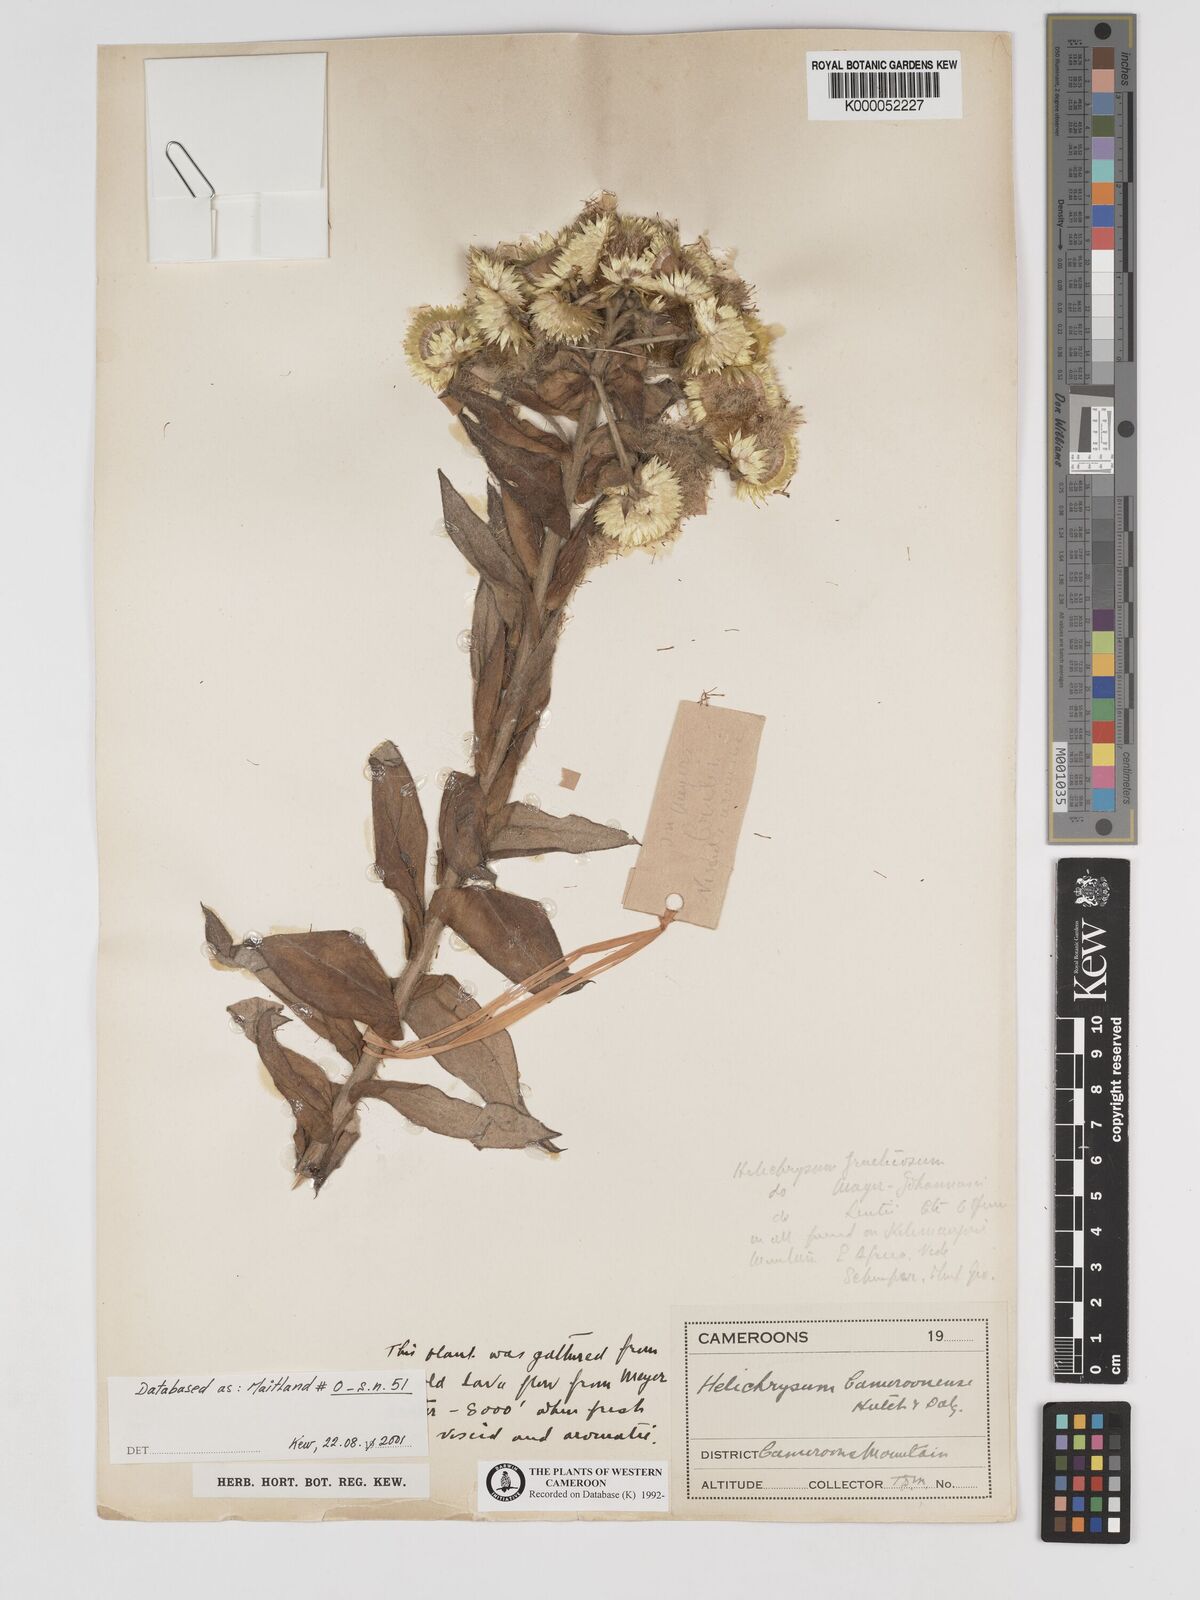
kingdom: Plantae
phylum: Tracheophyta
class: Magnoliopsida
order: Asterales
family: Asteraceae
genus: Helichrysum
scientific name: Helichrysum cameroonense
